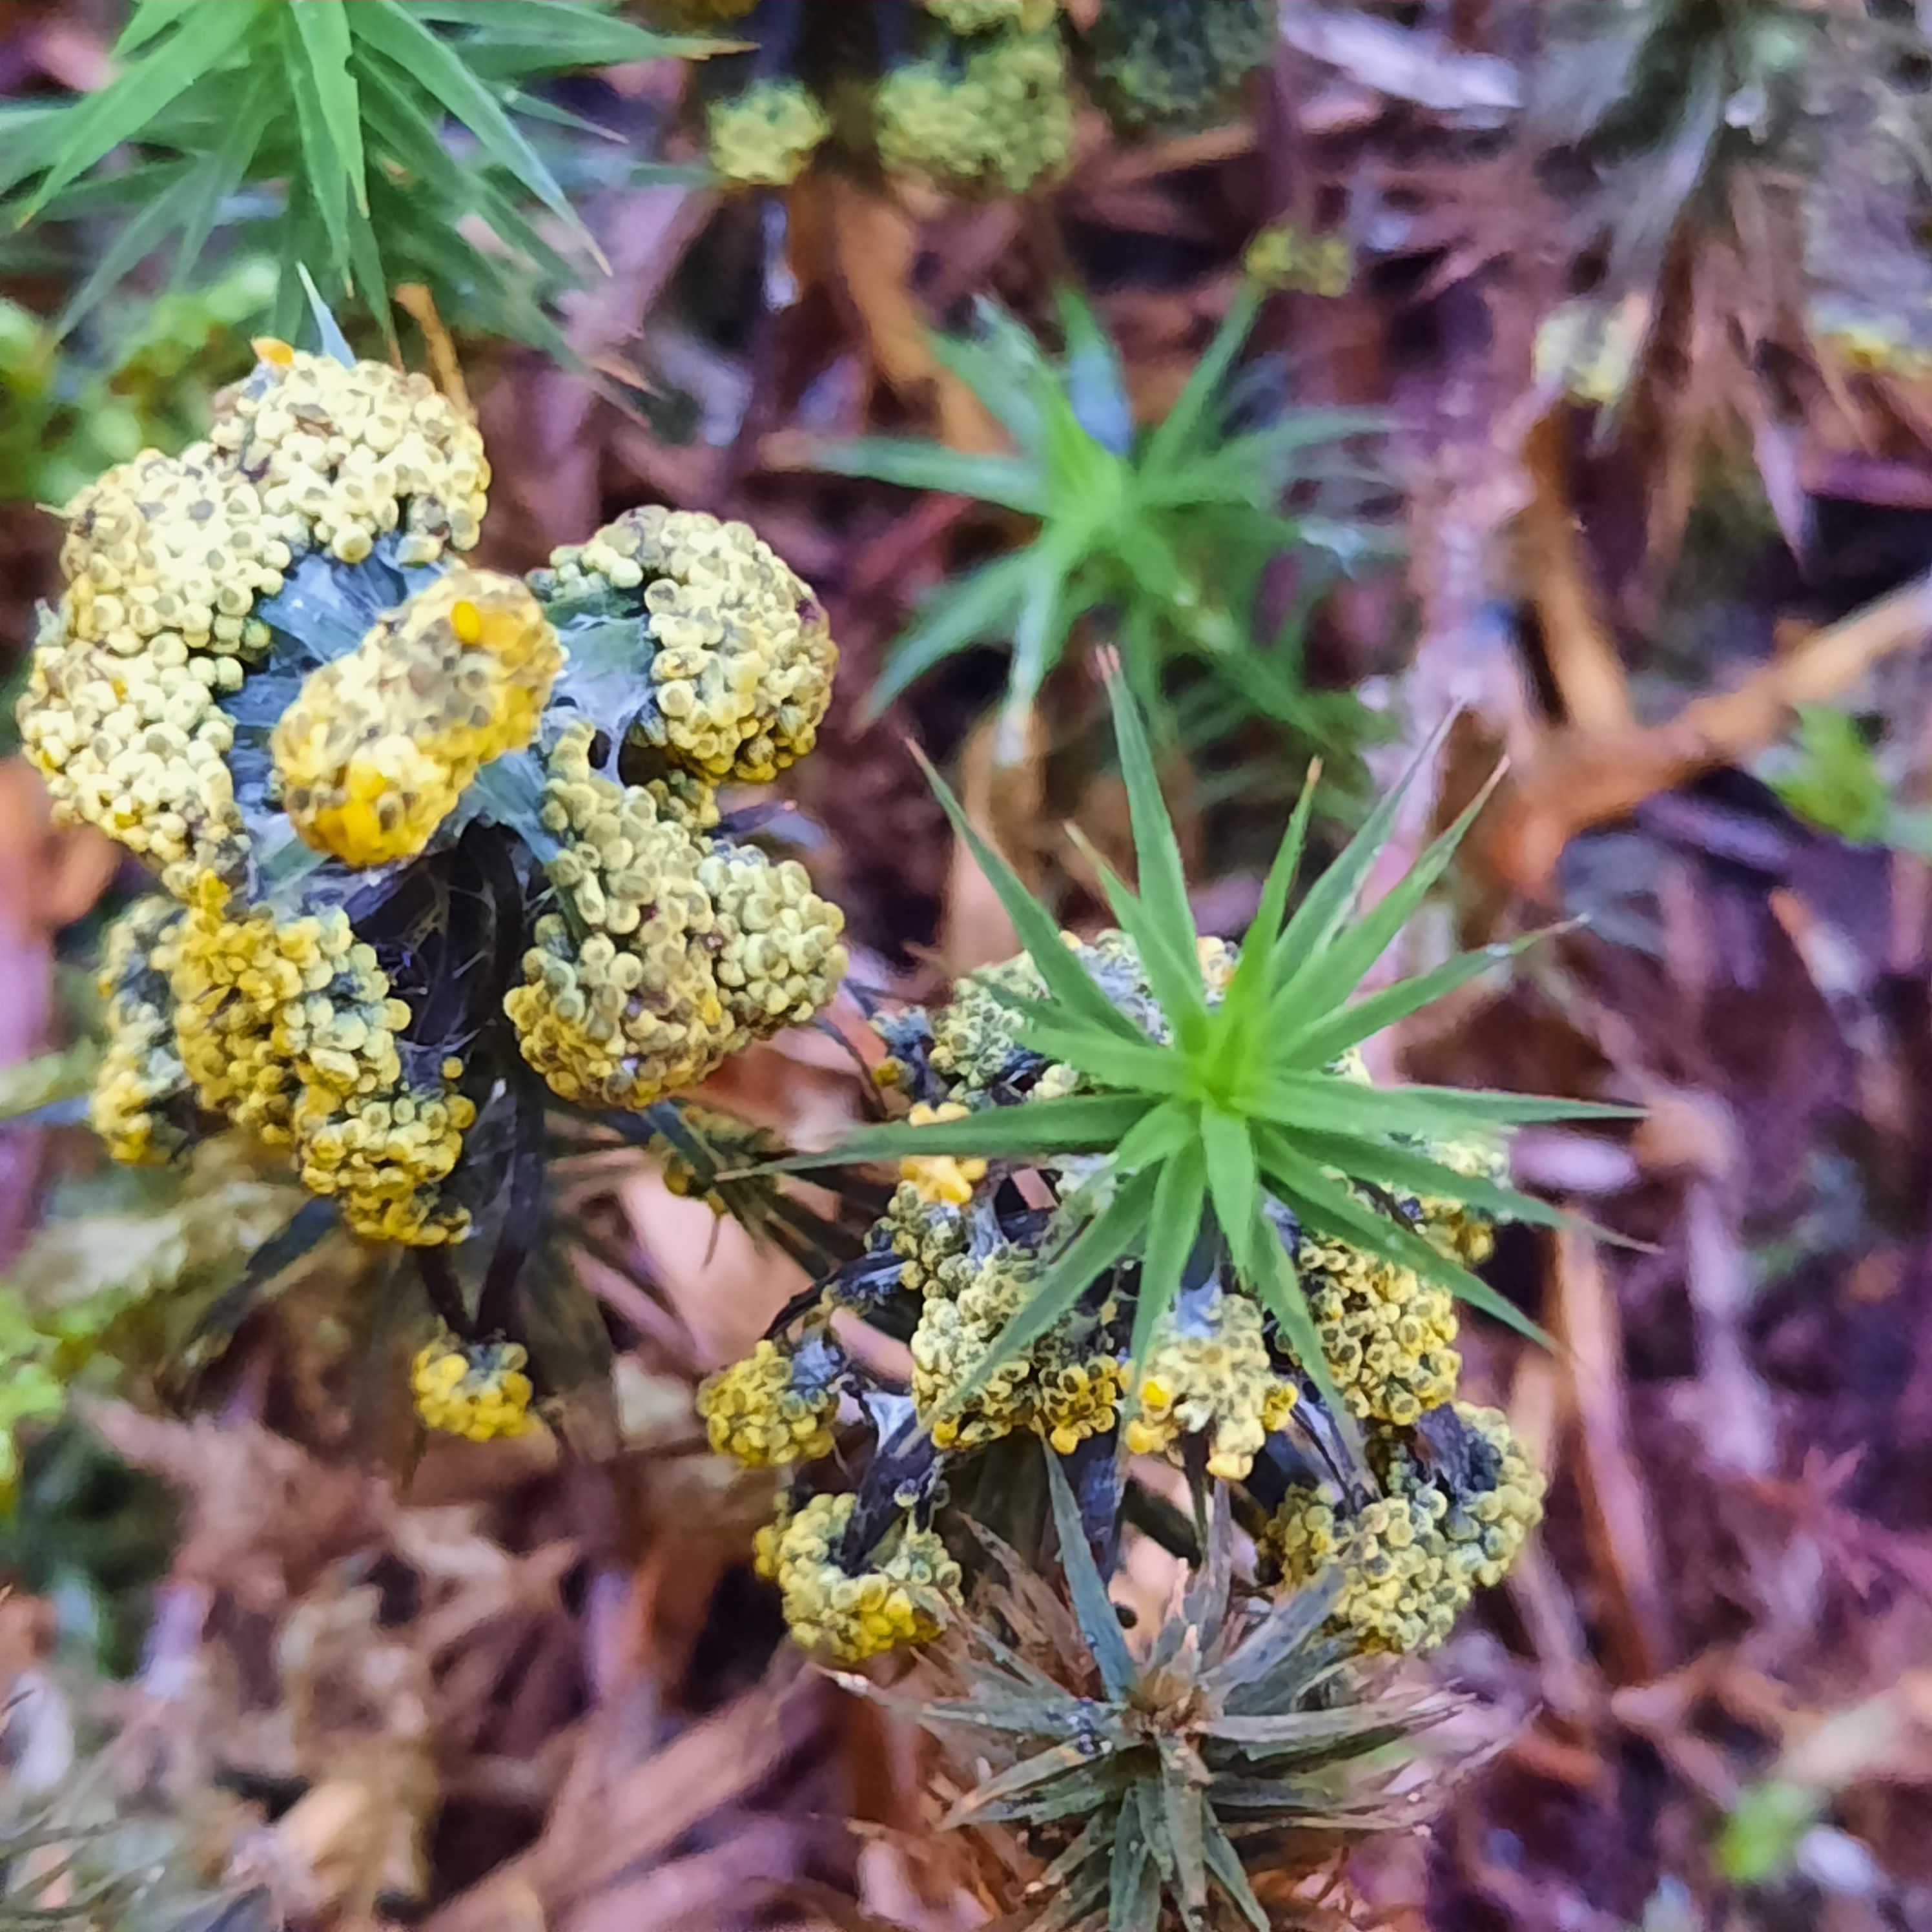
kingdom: Protozoa
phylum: Mycetozoa
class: Myxomycetes
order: Physarales
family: Physaraceae
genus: Physarum
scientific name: Physarum virescens
